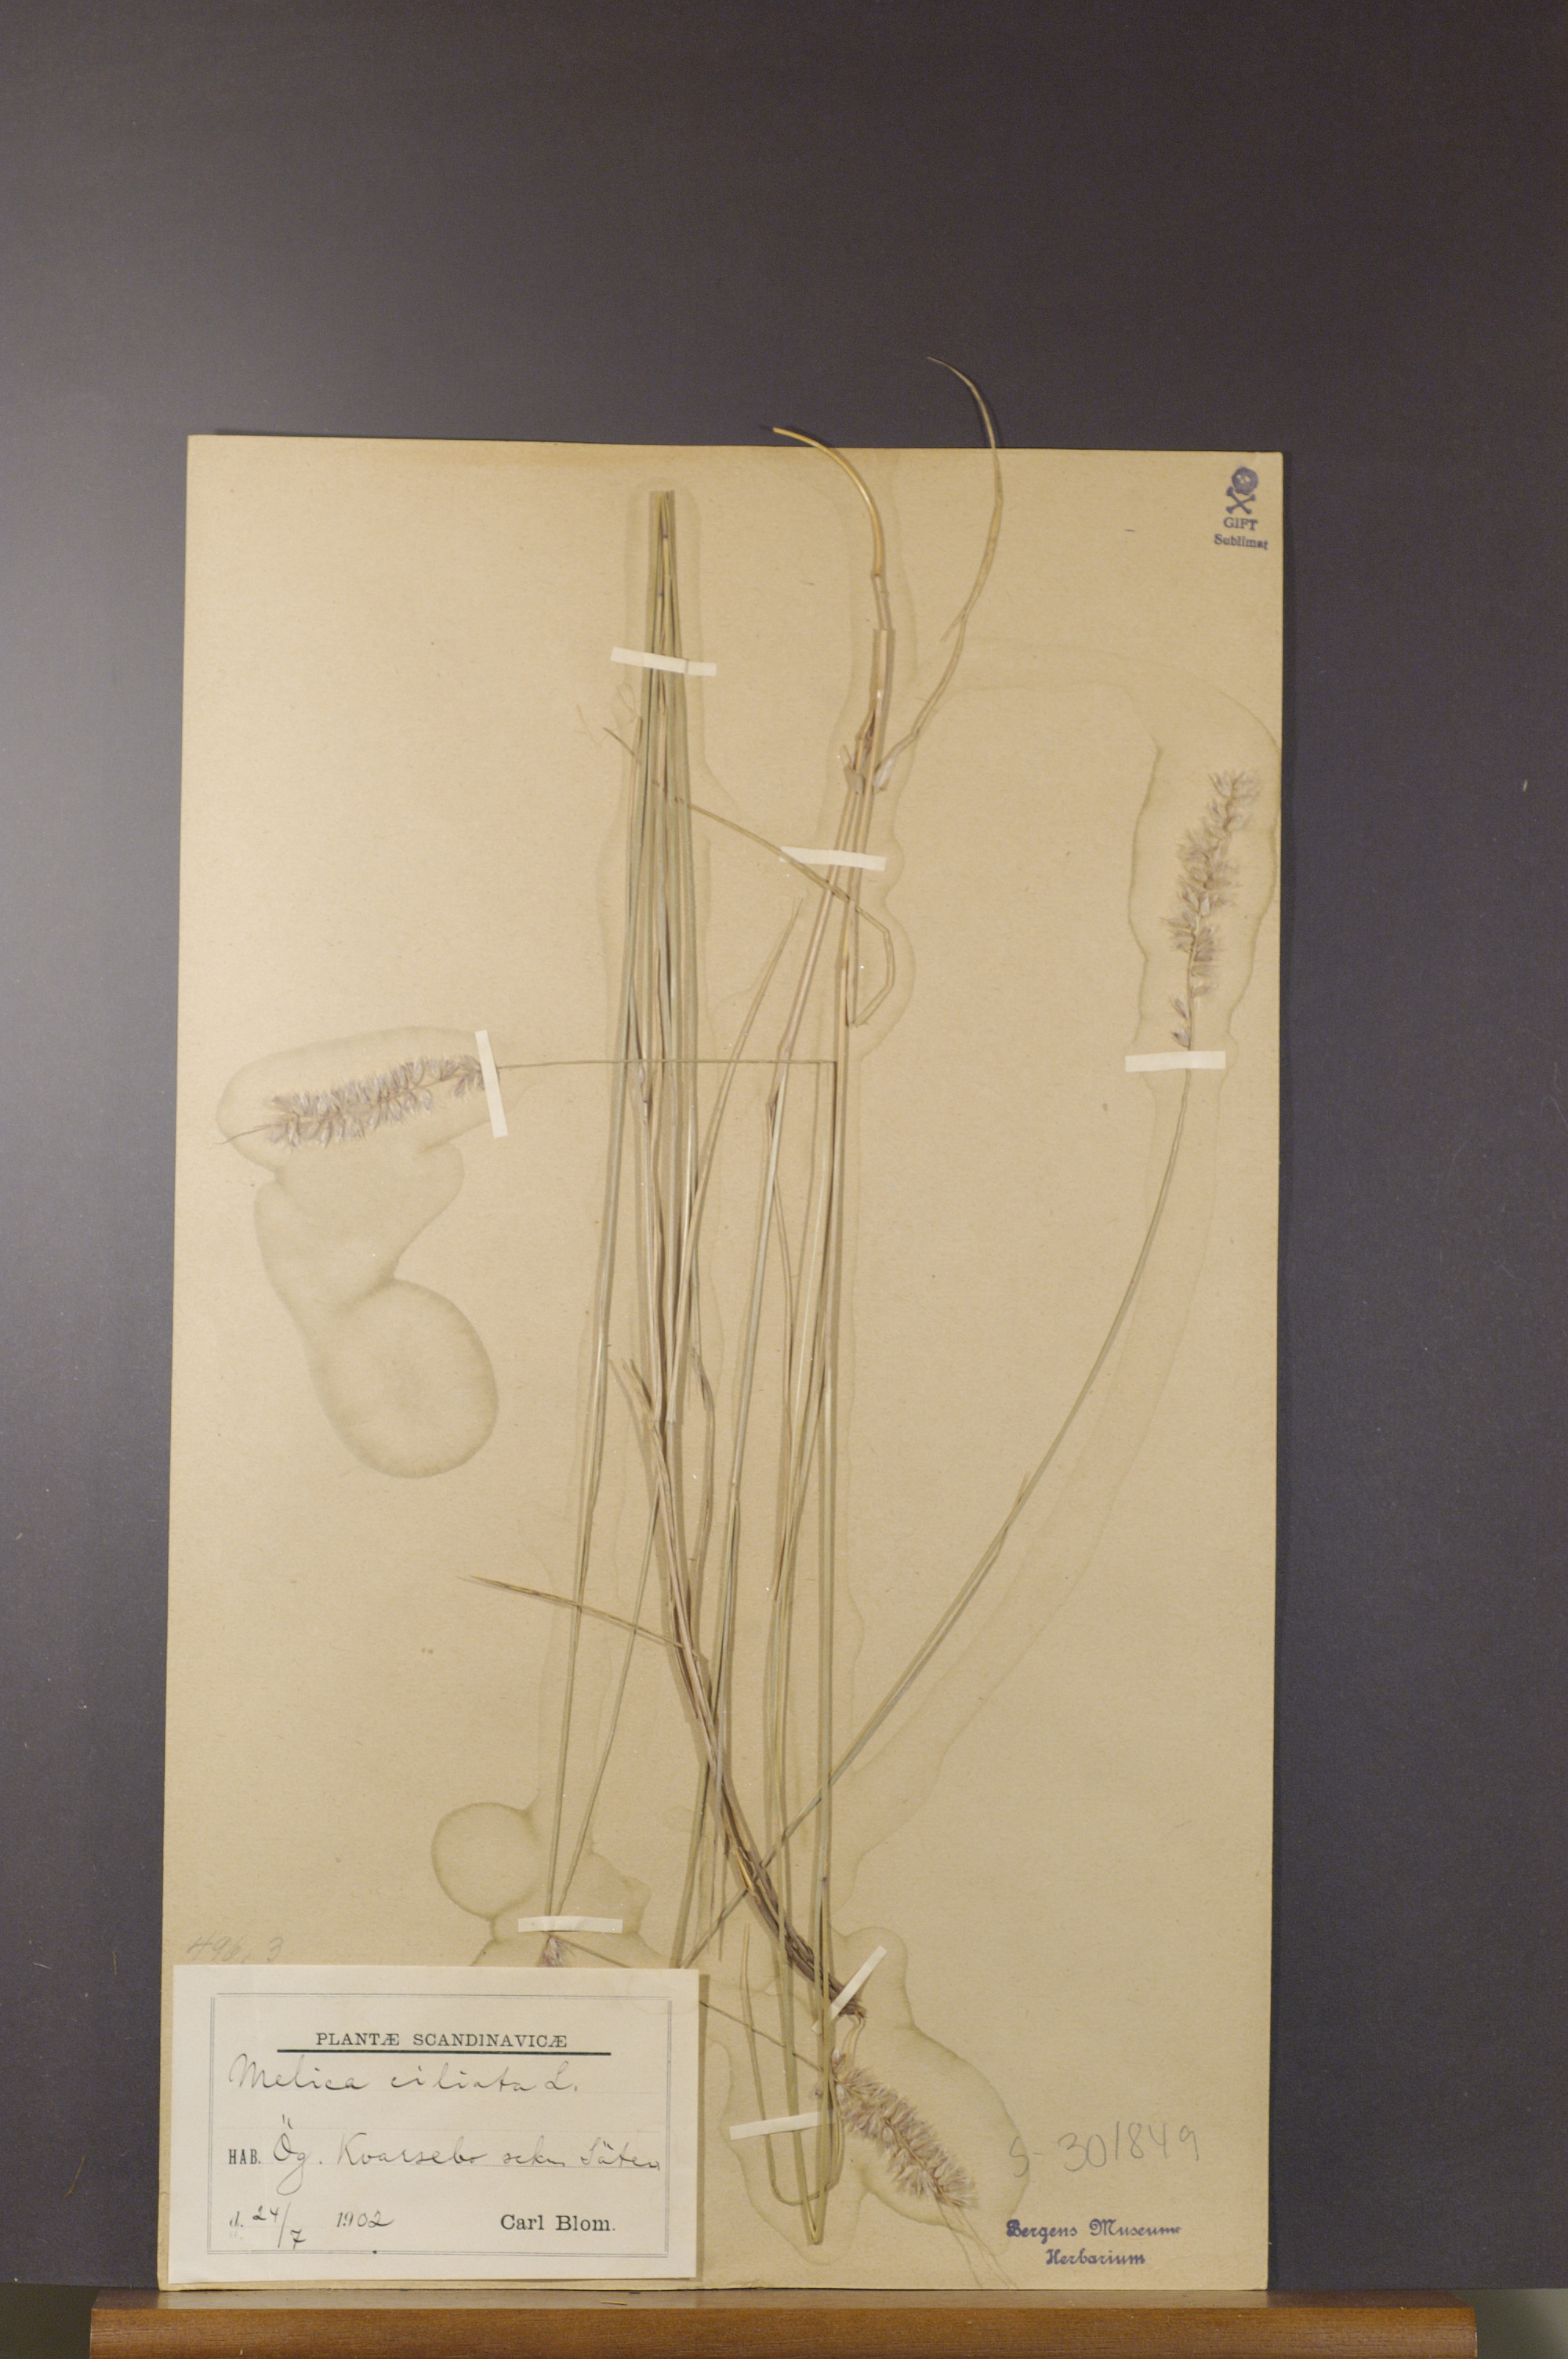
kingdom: Plantae
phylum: Tracheophyta
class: Liliopsida
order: Poales
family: Poaceae
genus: Melica
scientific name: Melica ciliata
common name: Hairy melicgrass
